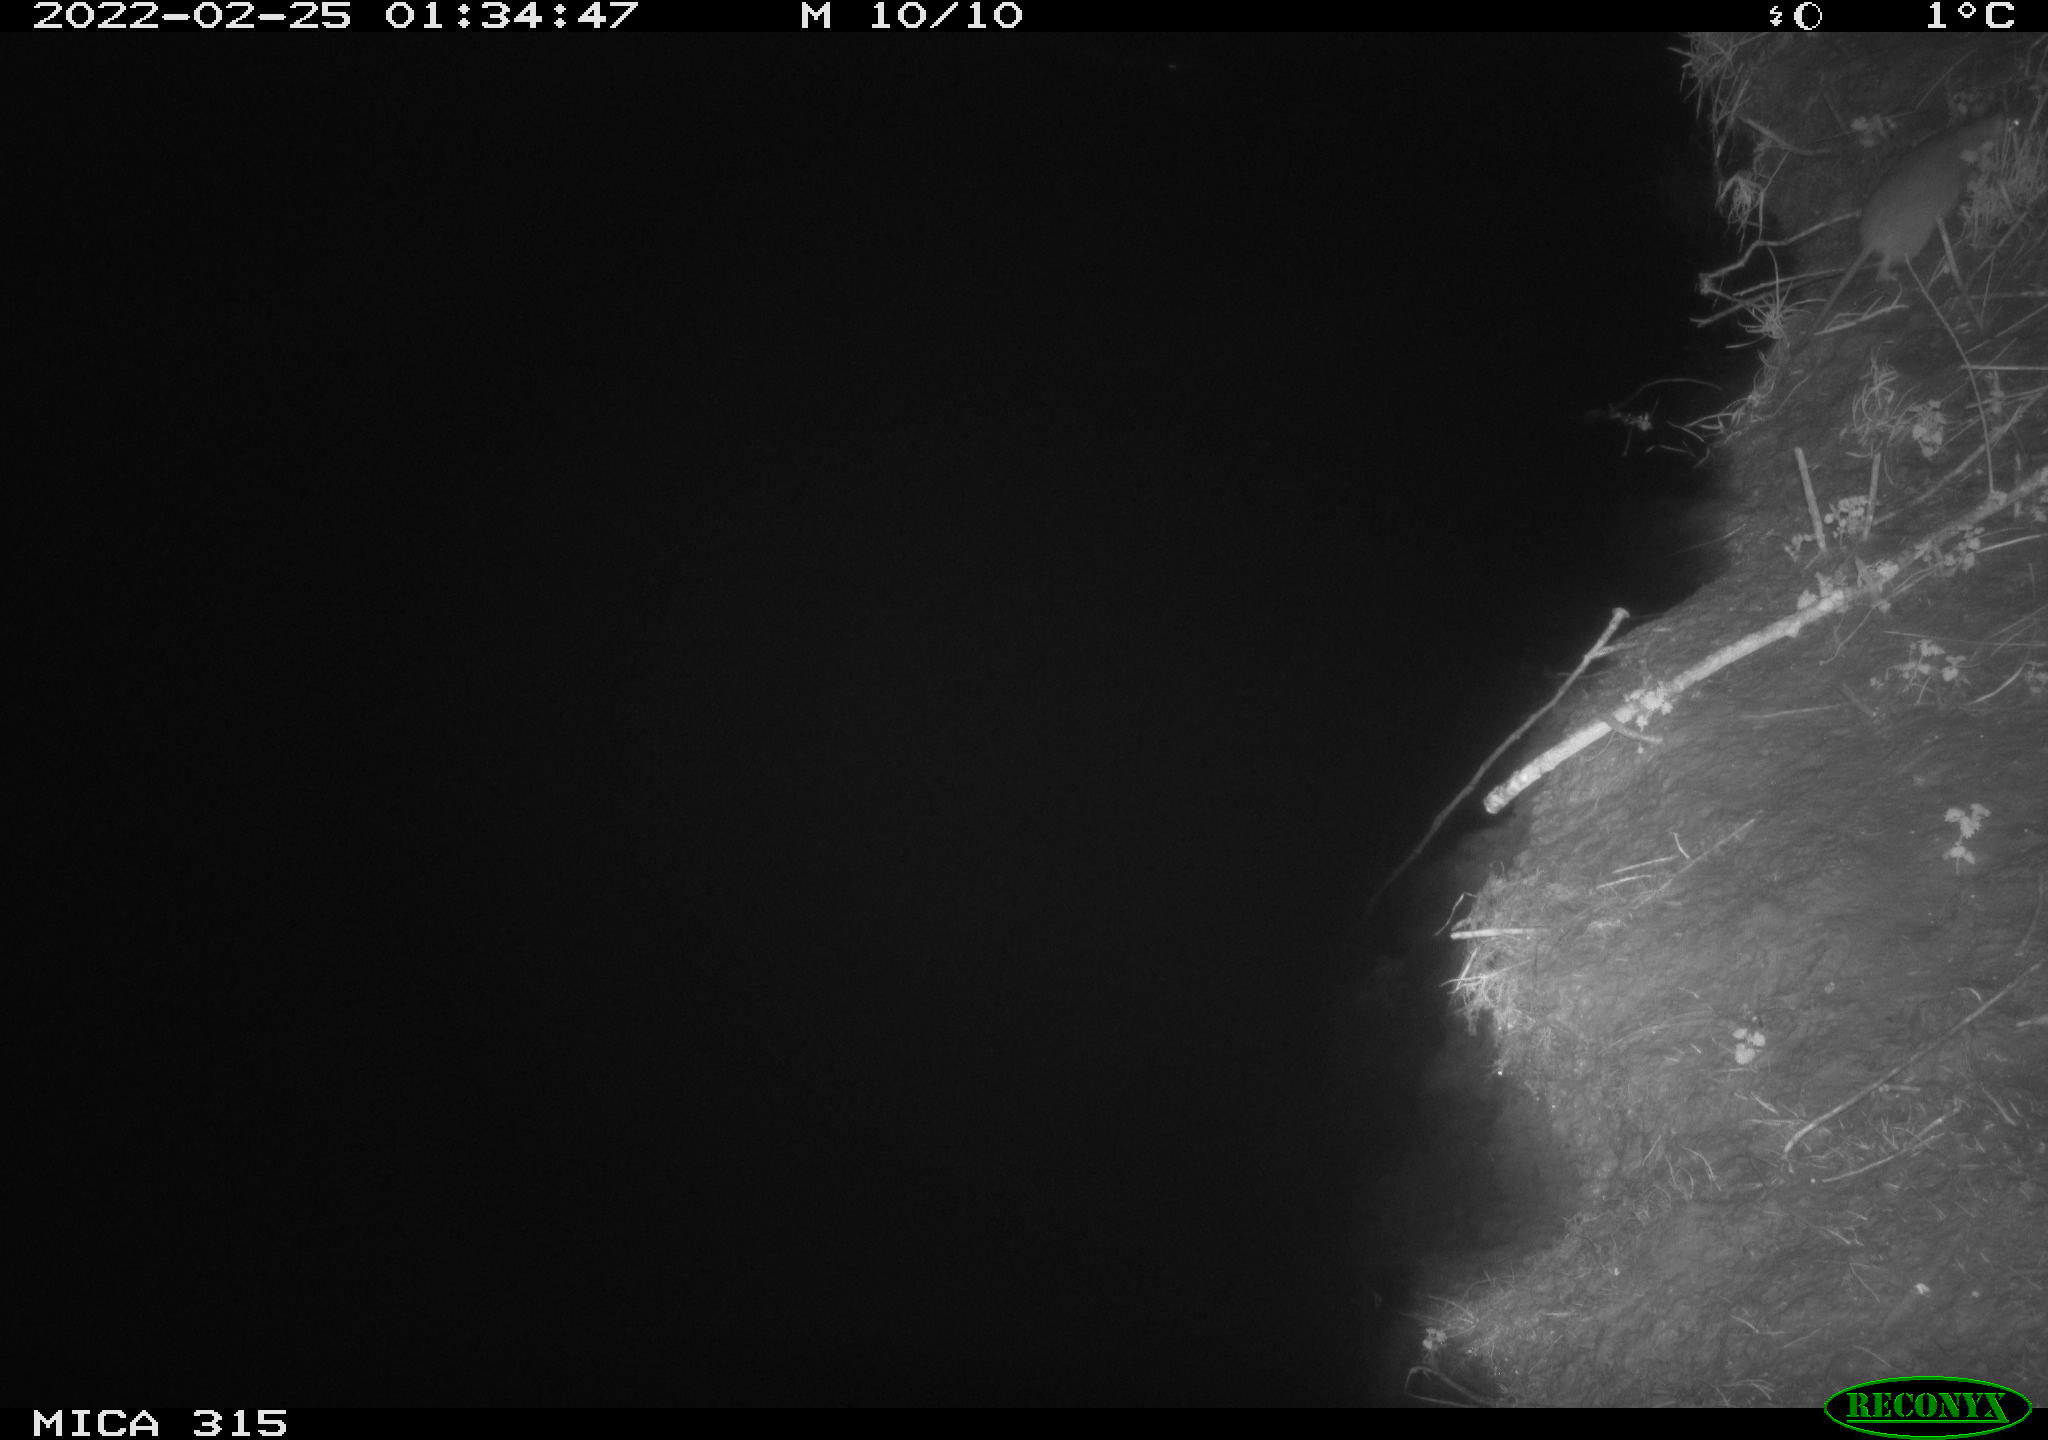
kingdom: Animalia
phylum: Chordata
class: Mammalia
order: Rodentia
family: Muridae
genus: Rattus
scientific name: Rattus norvegicus
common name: Brown rat
